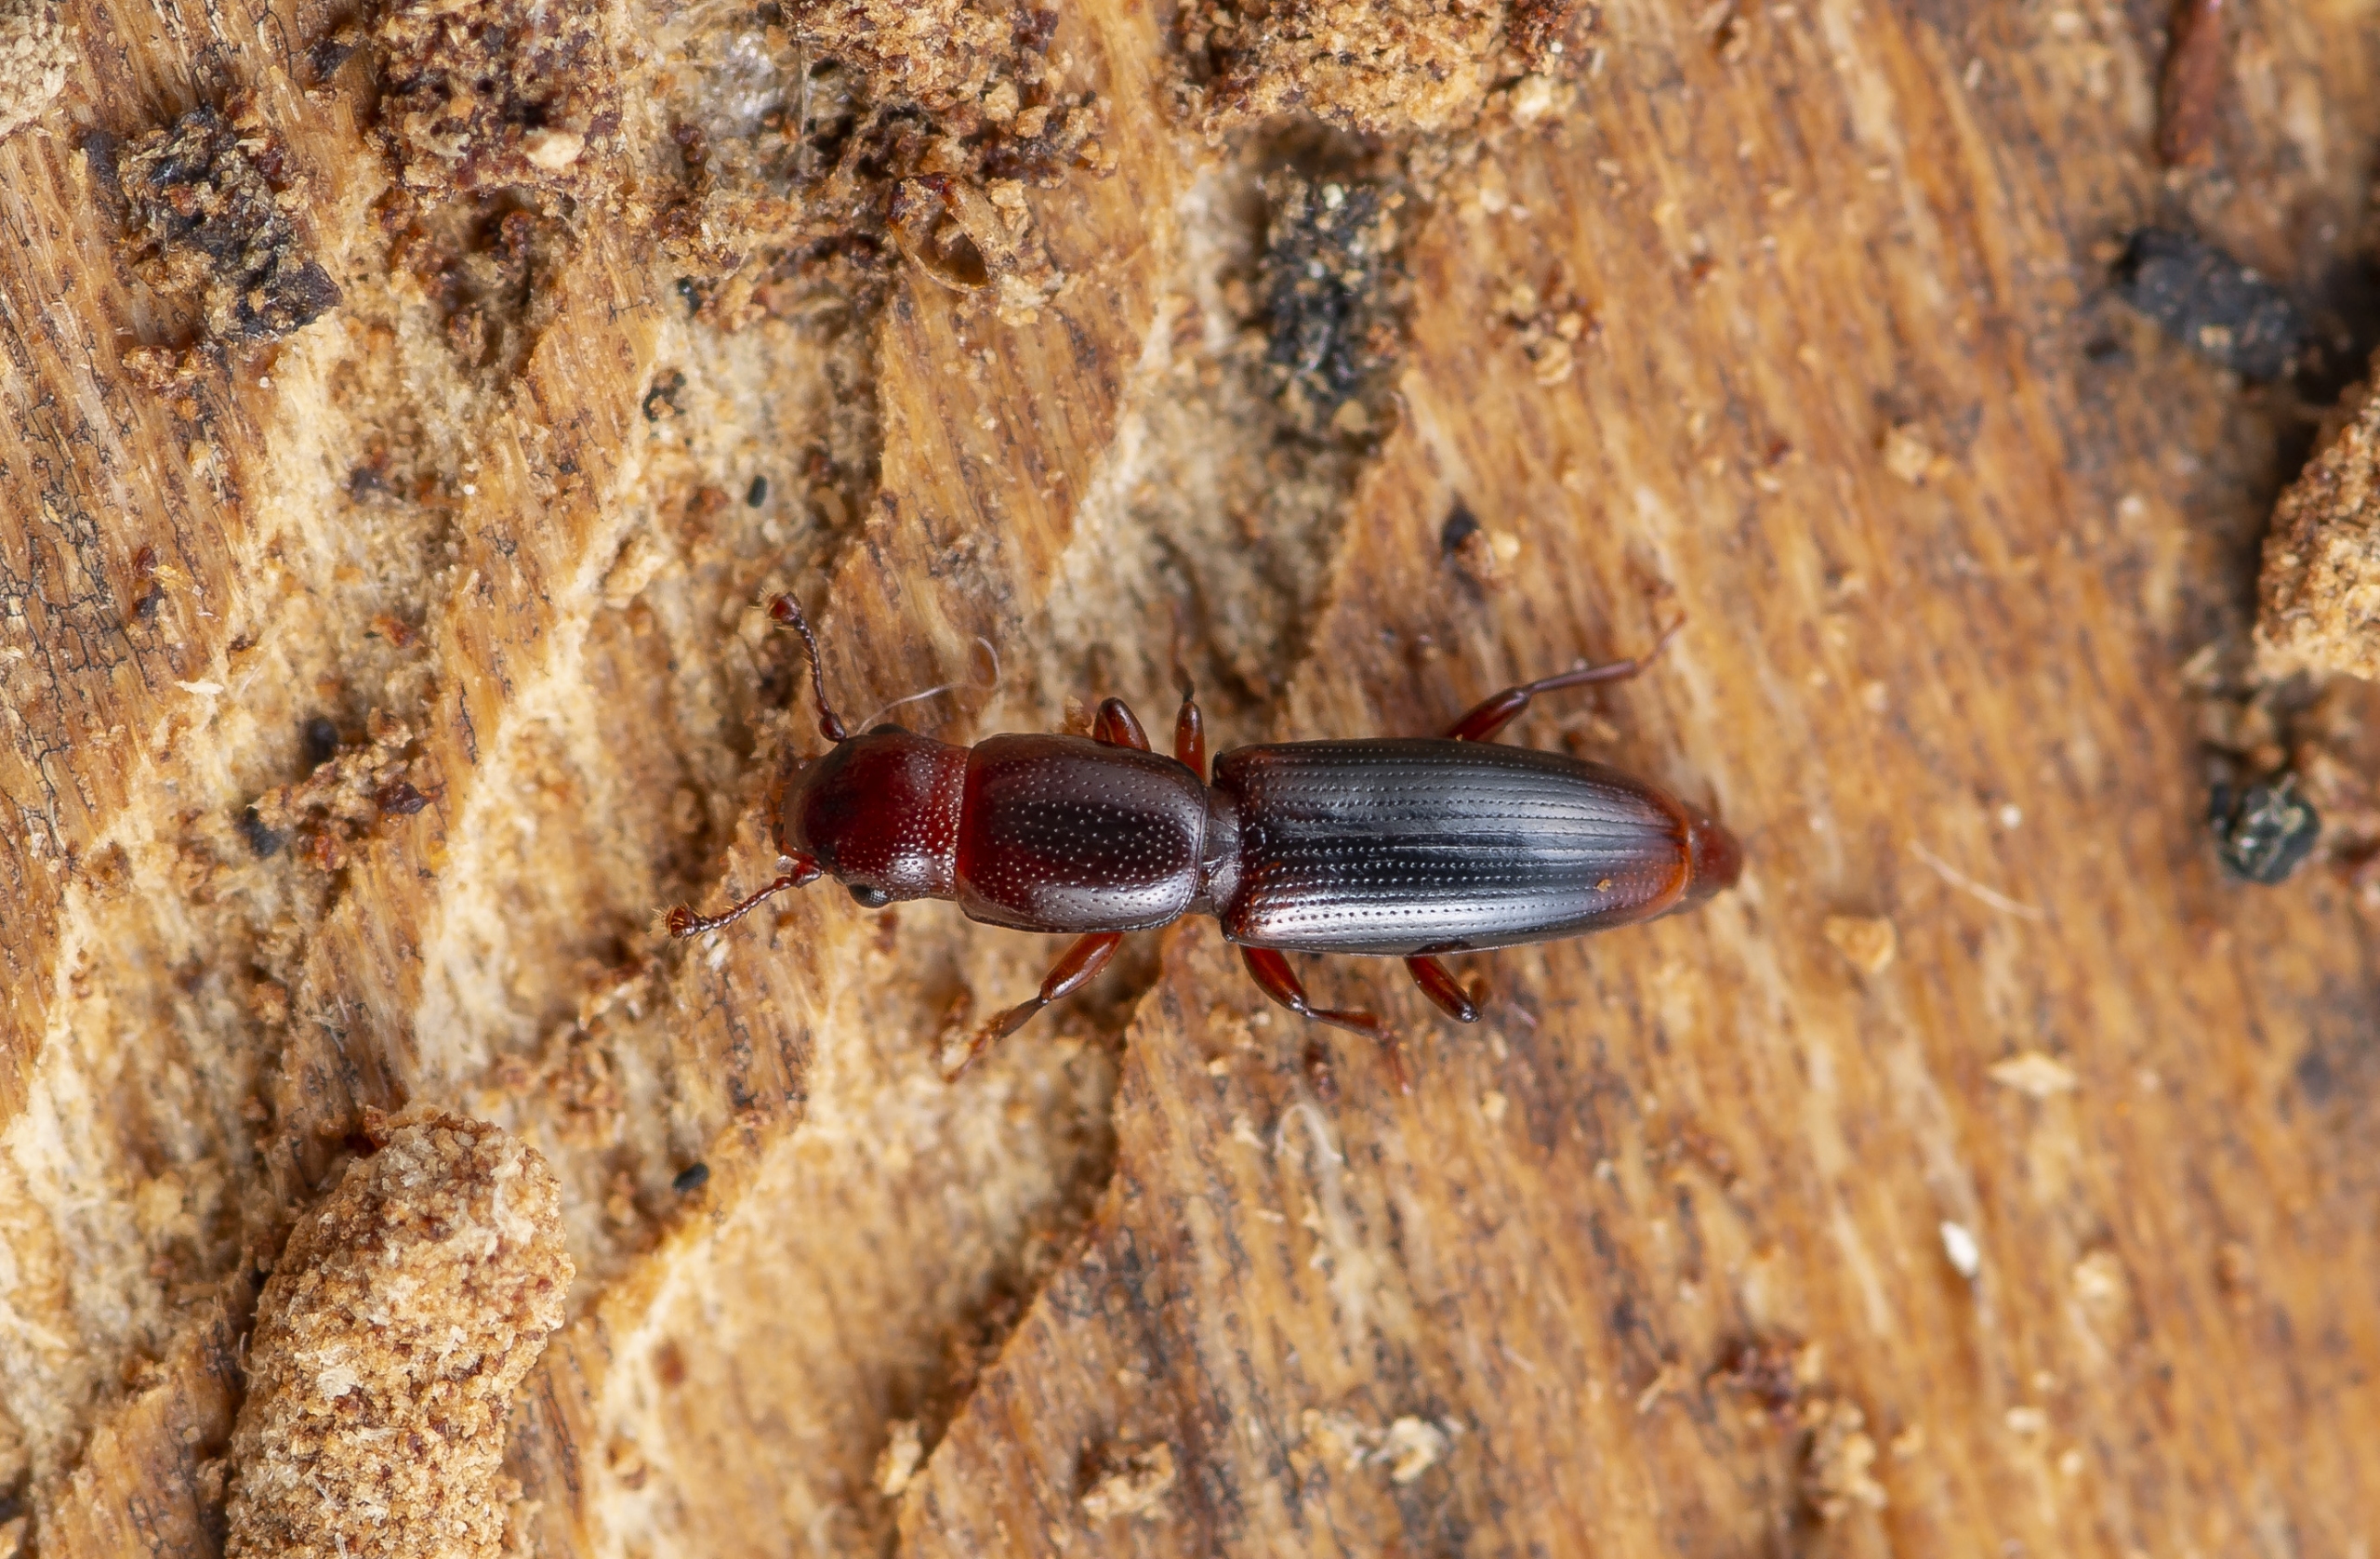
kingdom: Animalia
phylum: Arthropoda
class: Insecta
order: Coleoptera
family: Monotomidae
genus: Rhizophagus
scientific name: Rhizophagus dispar
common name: Almindelig barksmalbille
